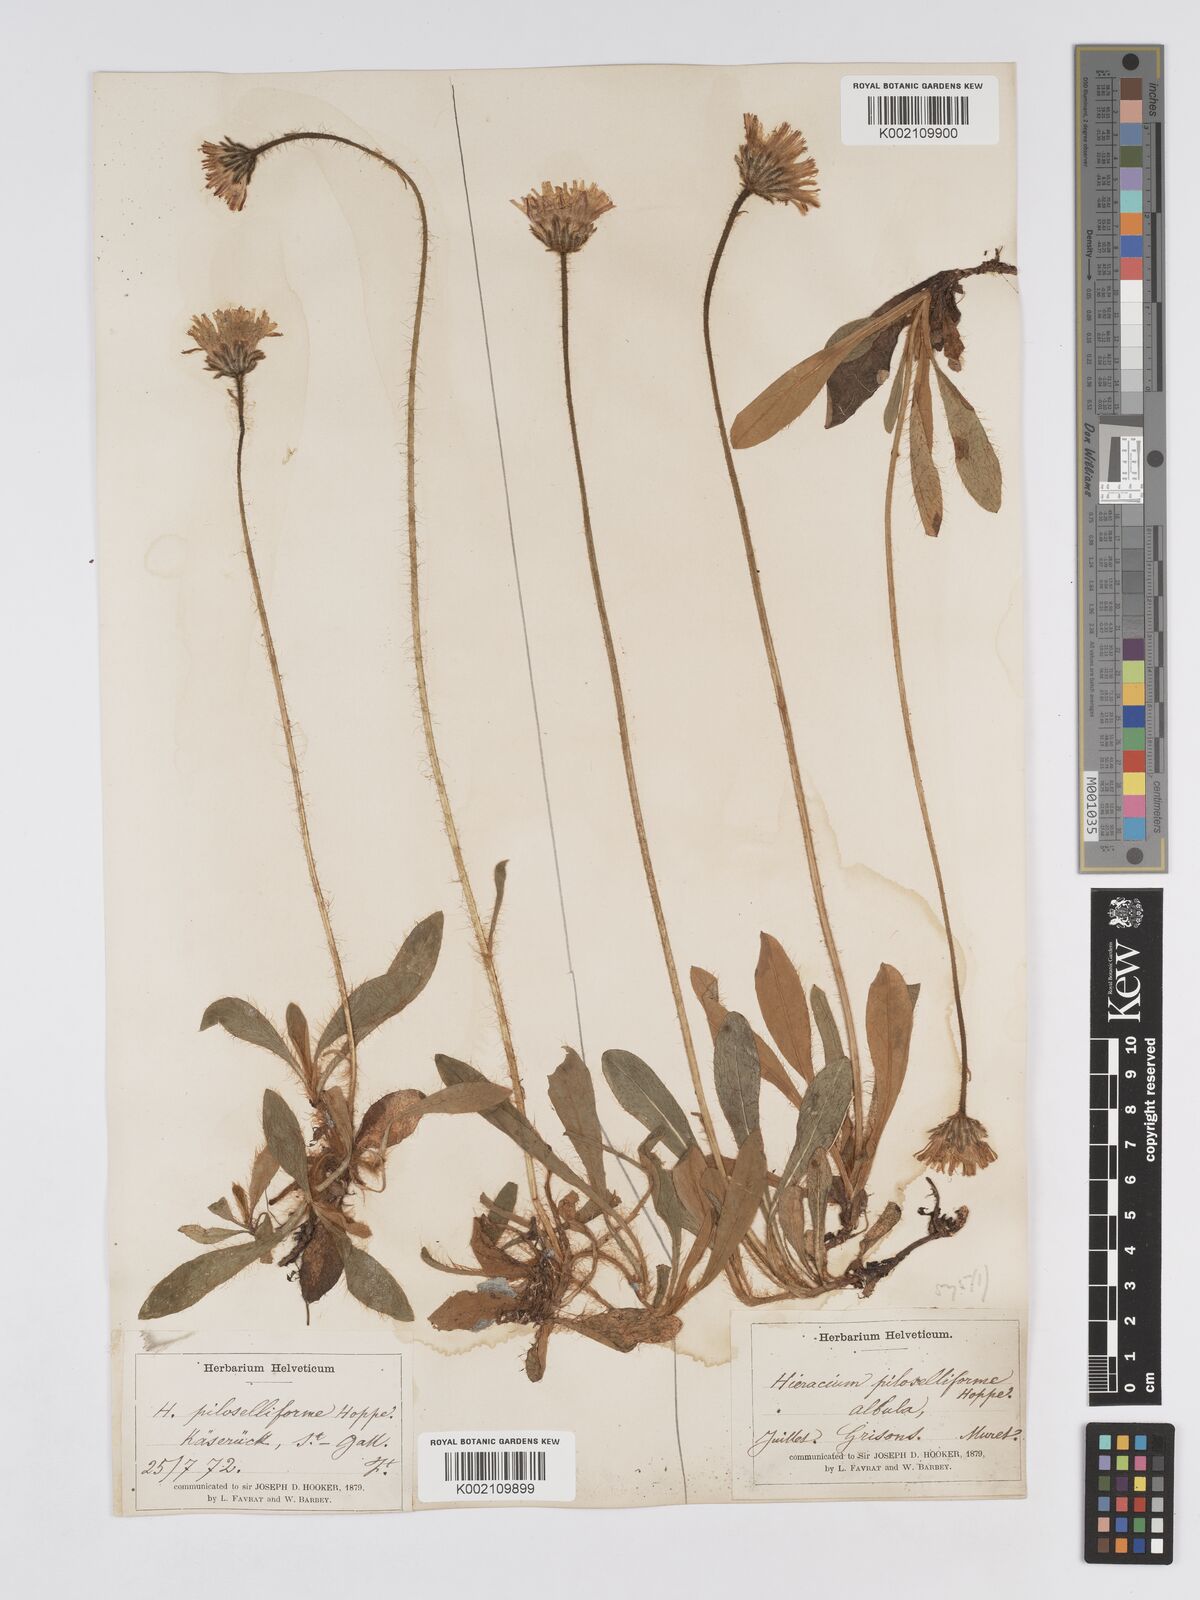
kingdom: Plantae
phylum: Tracheophyta
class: Magnoliopsida
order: Asterales
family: Asteraceae
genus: Pilosella
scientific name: Pilosella hoppeana
